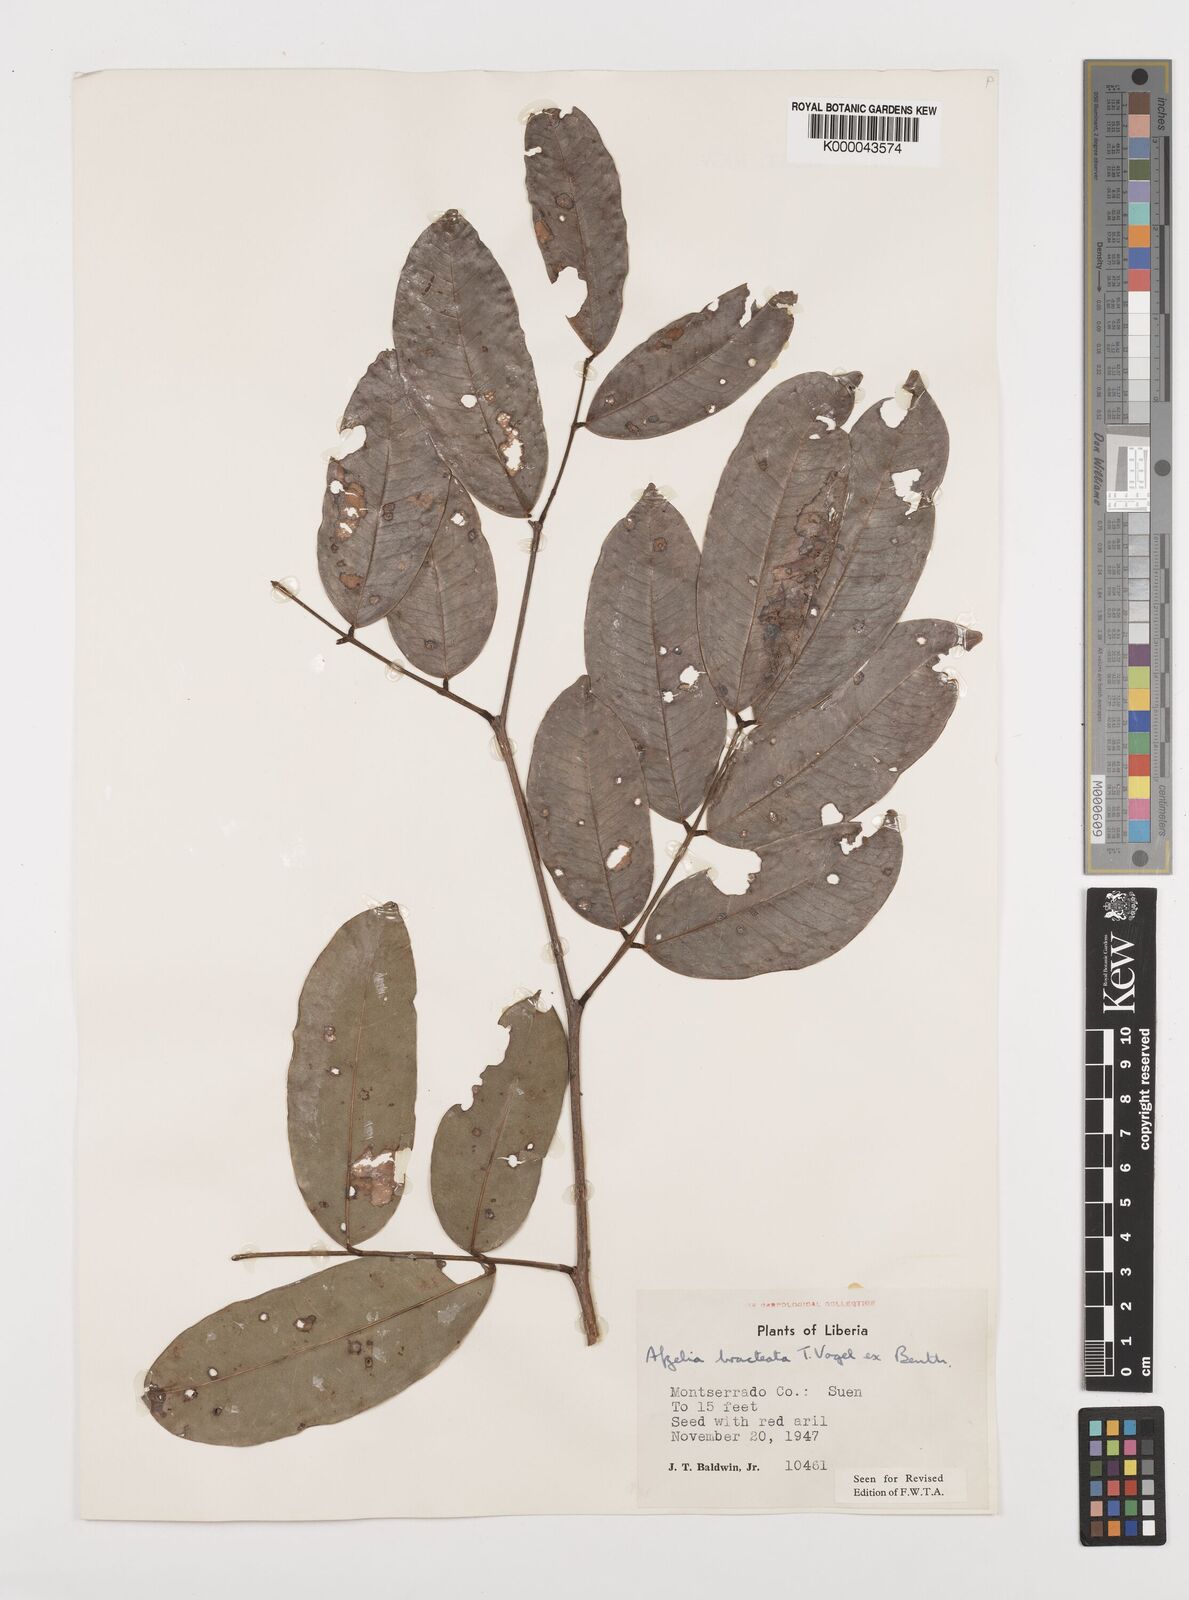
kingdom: Plantae
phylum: Tracheophyta
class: Magnoliopsida
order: Fabales
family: Fabaceae
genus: Afzelia
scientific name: Afzelia
